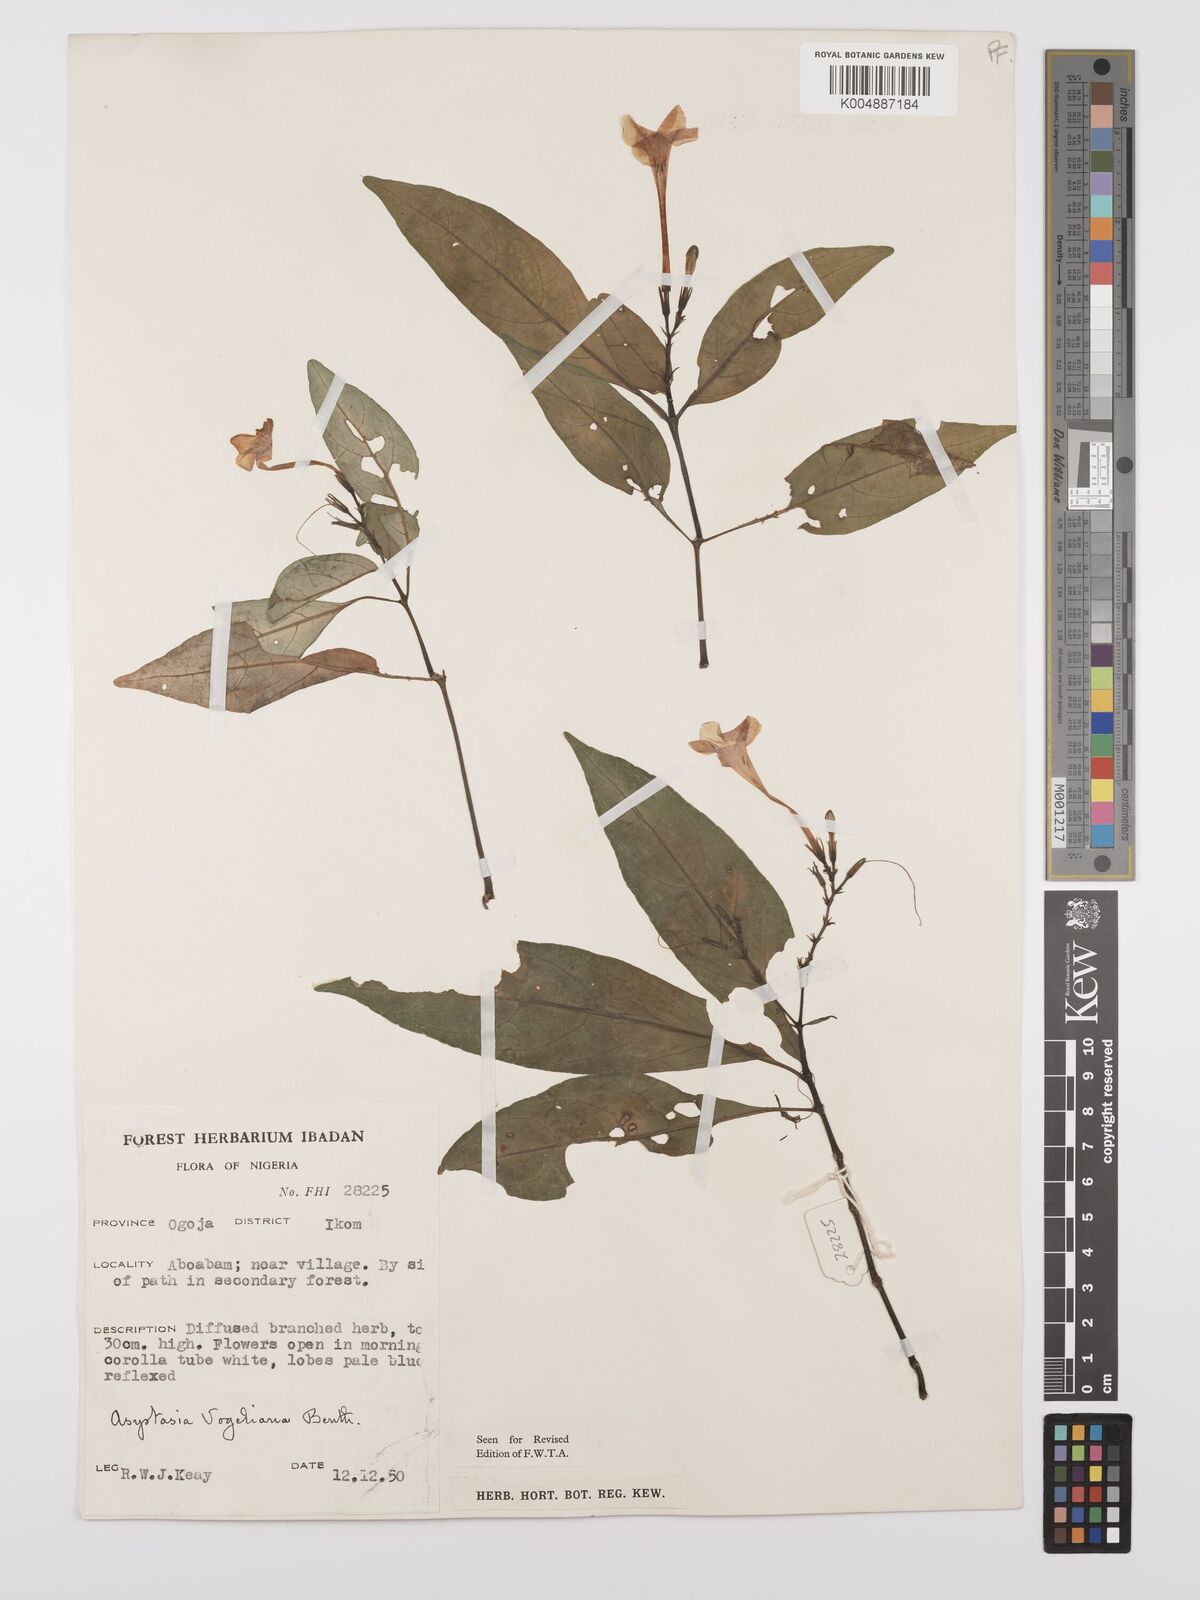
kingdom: Plantae
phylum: Tracheophyta
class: Magnoliopsida
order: Lamiales
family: Acanthaceae
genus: Asystasia
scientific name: Asystasia vogeliana
